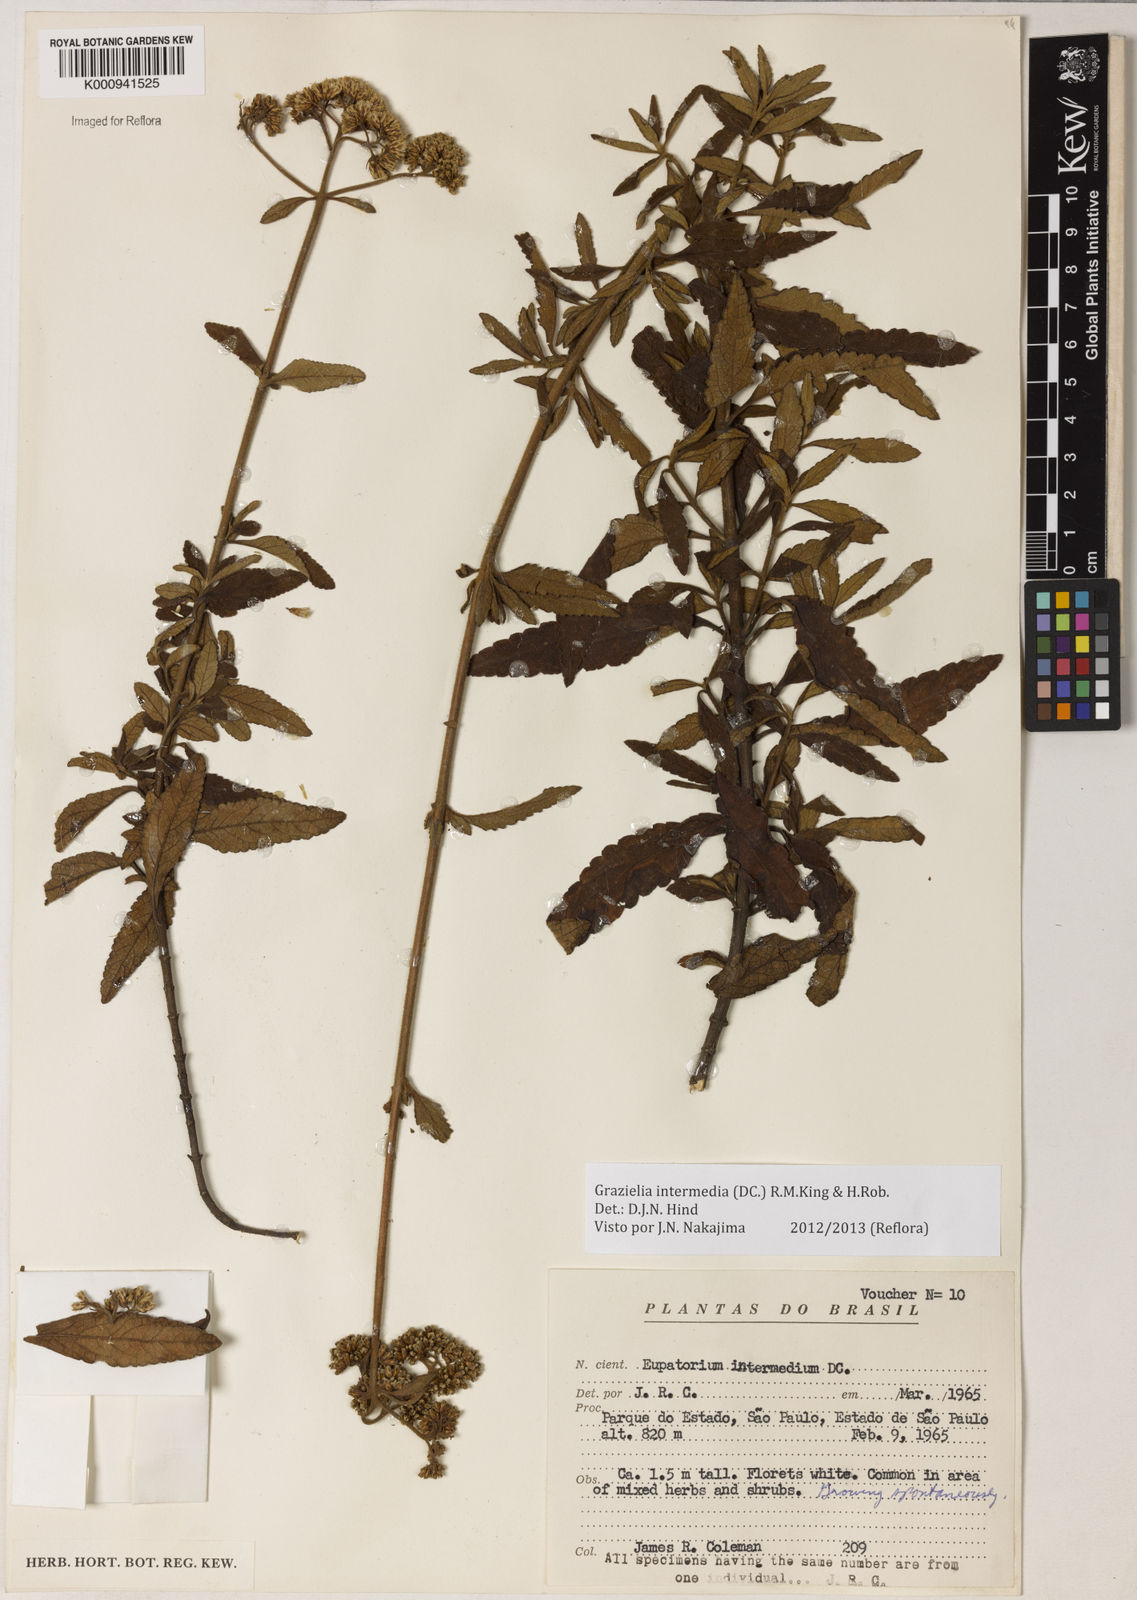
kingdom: Plantae
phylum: Tracheophyta
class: Magnoliopsida
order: Asterales
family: Asteraceae
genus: Grazielia
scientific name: Grazielia intermedia
